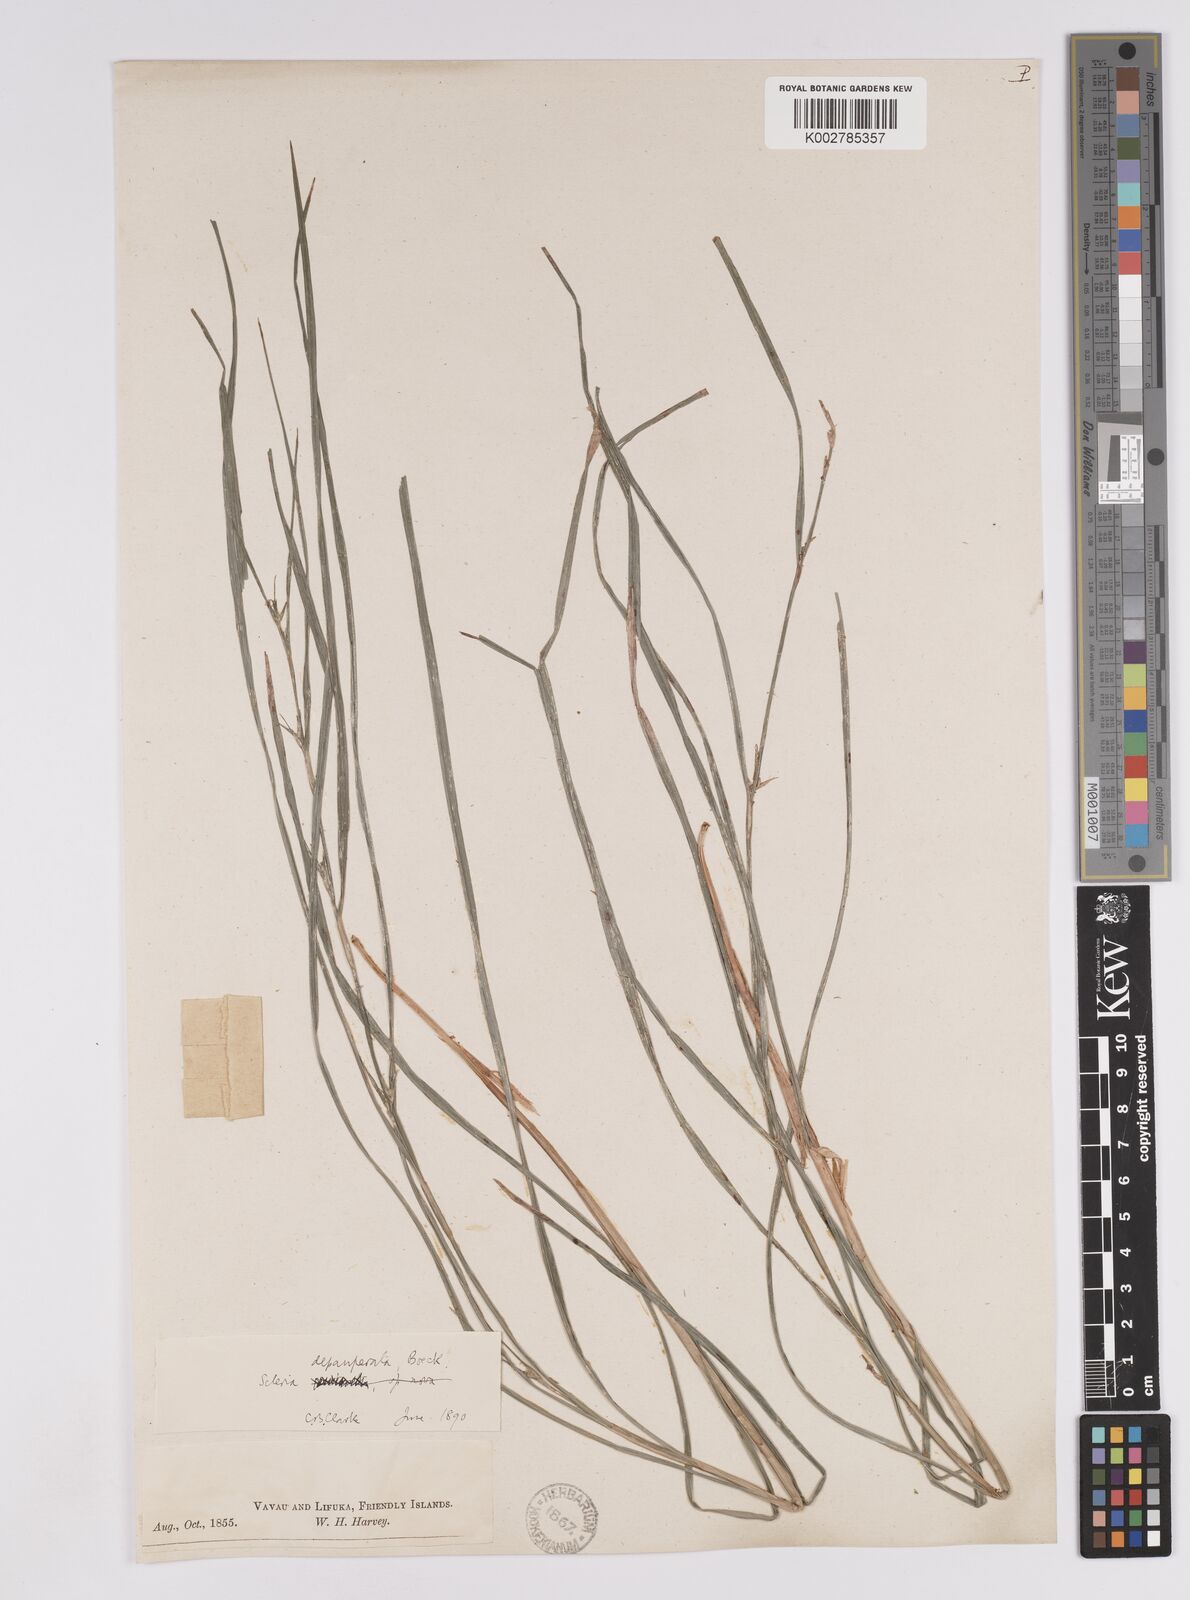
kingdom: Plantae
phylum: Tracheophyta
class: Liliopsida
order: Poales
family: Cyperaceae
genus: Scleria
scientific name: Scleria depauperata
